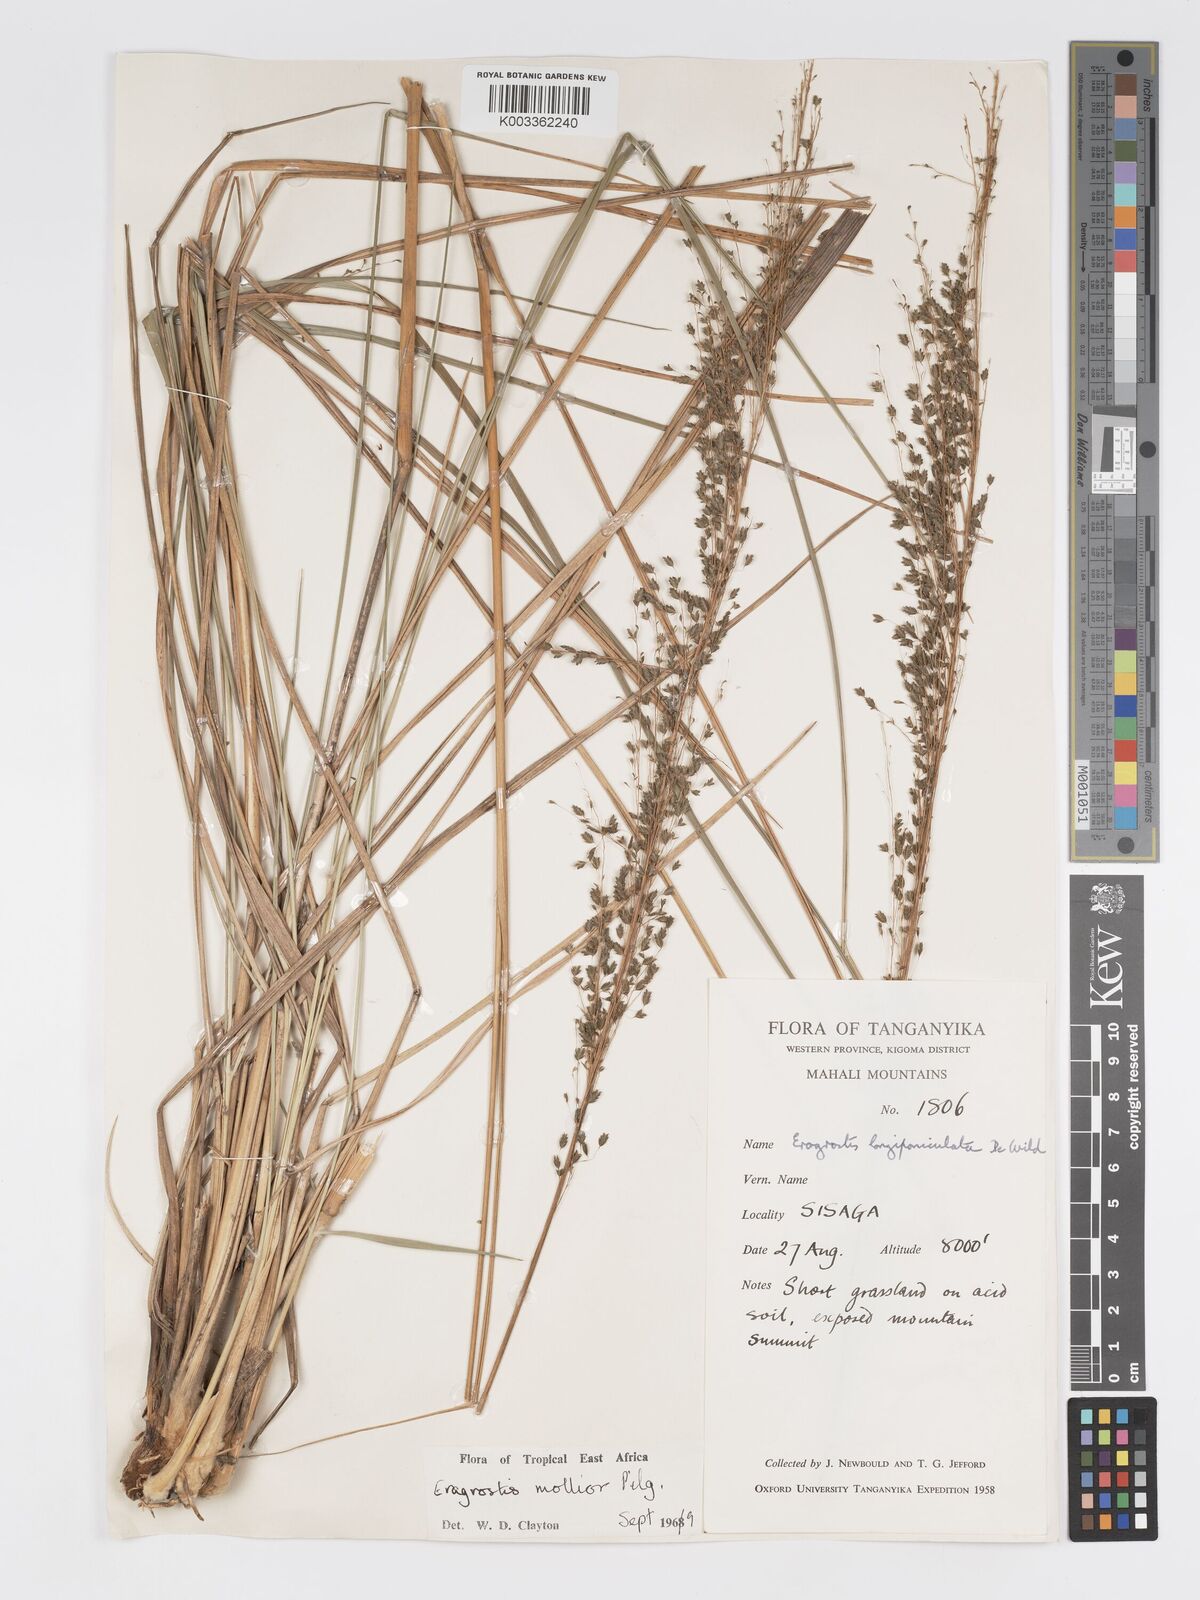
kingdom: Plantae
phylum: Tracheophyta
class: Liliopsida
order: Poales
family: Poaceae
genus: Eragrostis
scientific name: Eragrostis mollior
